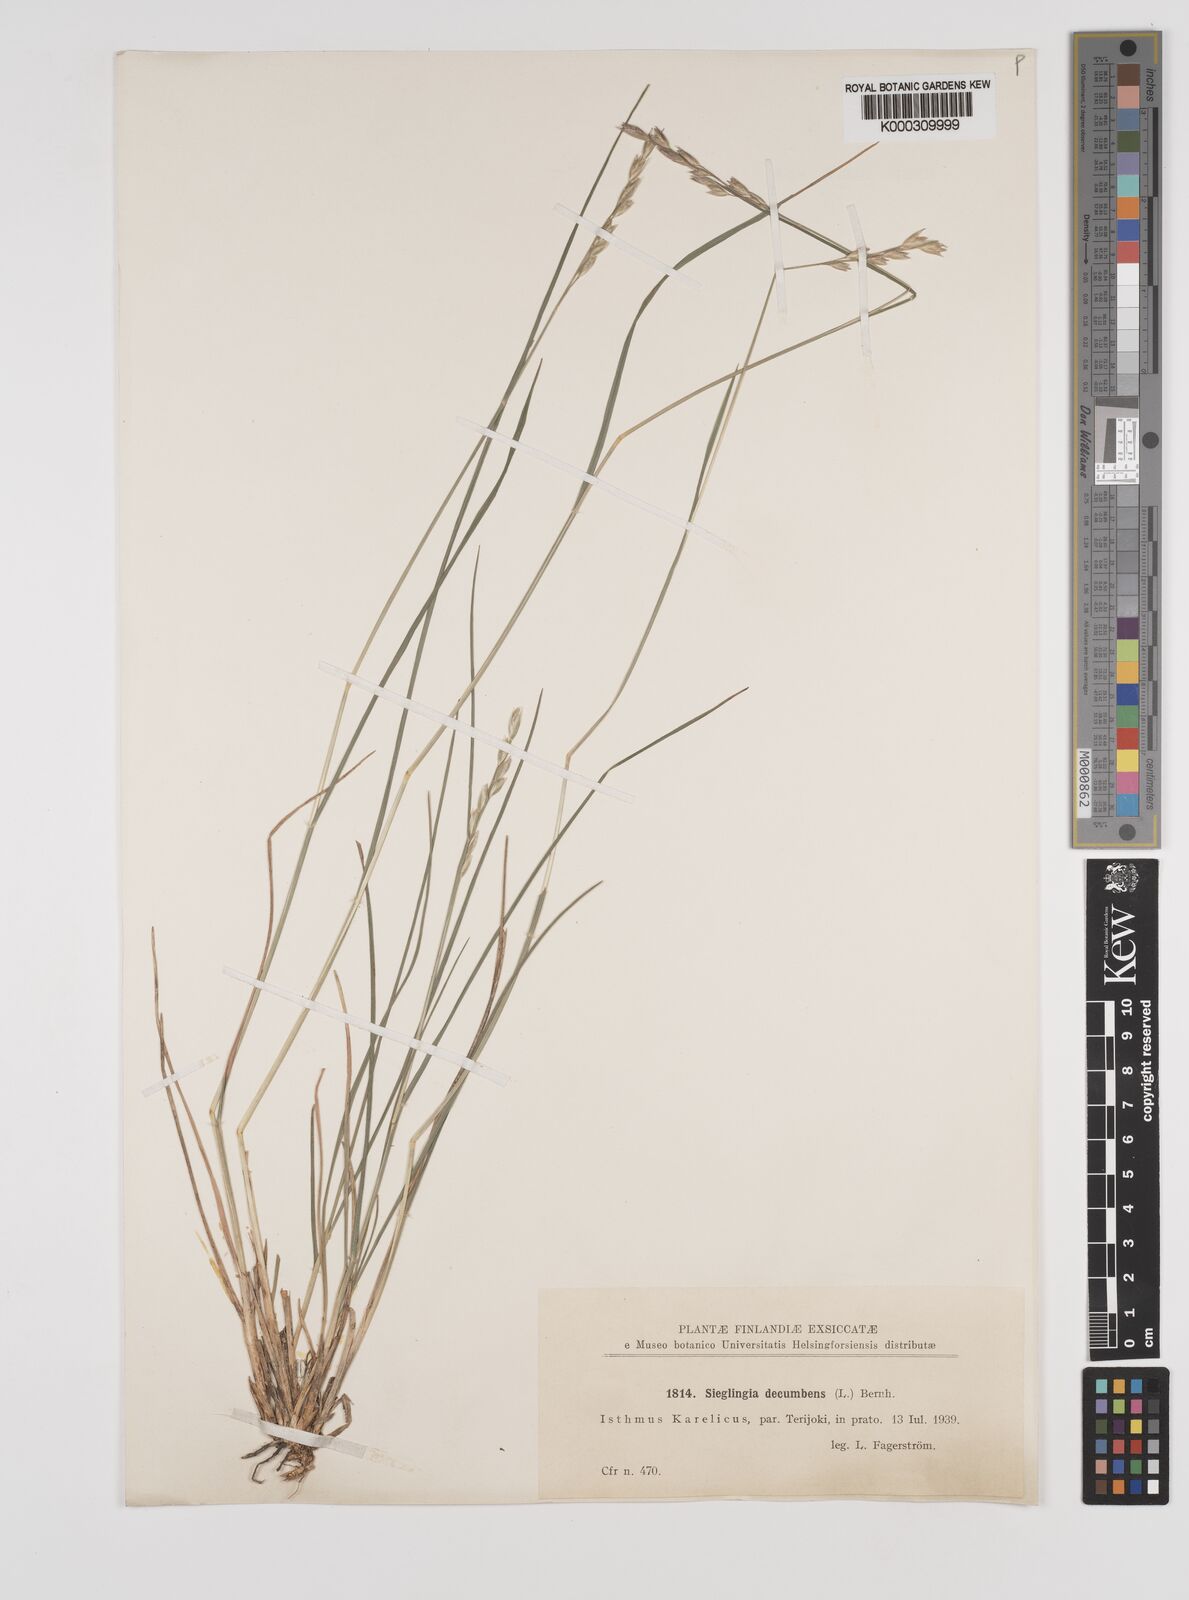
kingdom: Plantae
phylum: Tracheophyta
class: Liliopsida
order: Poales
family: Poaceae
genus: Danthonia
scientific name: Danthonia decumbens
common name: Common heathgrass
